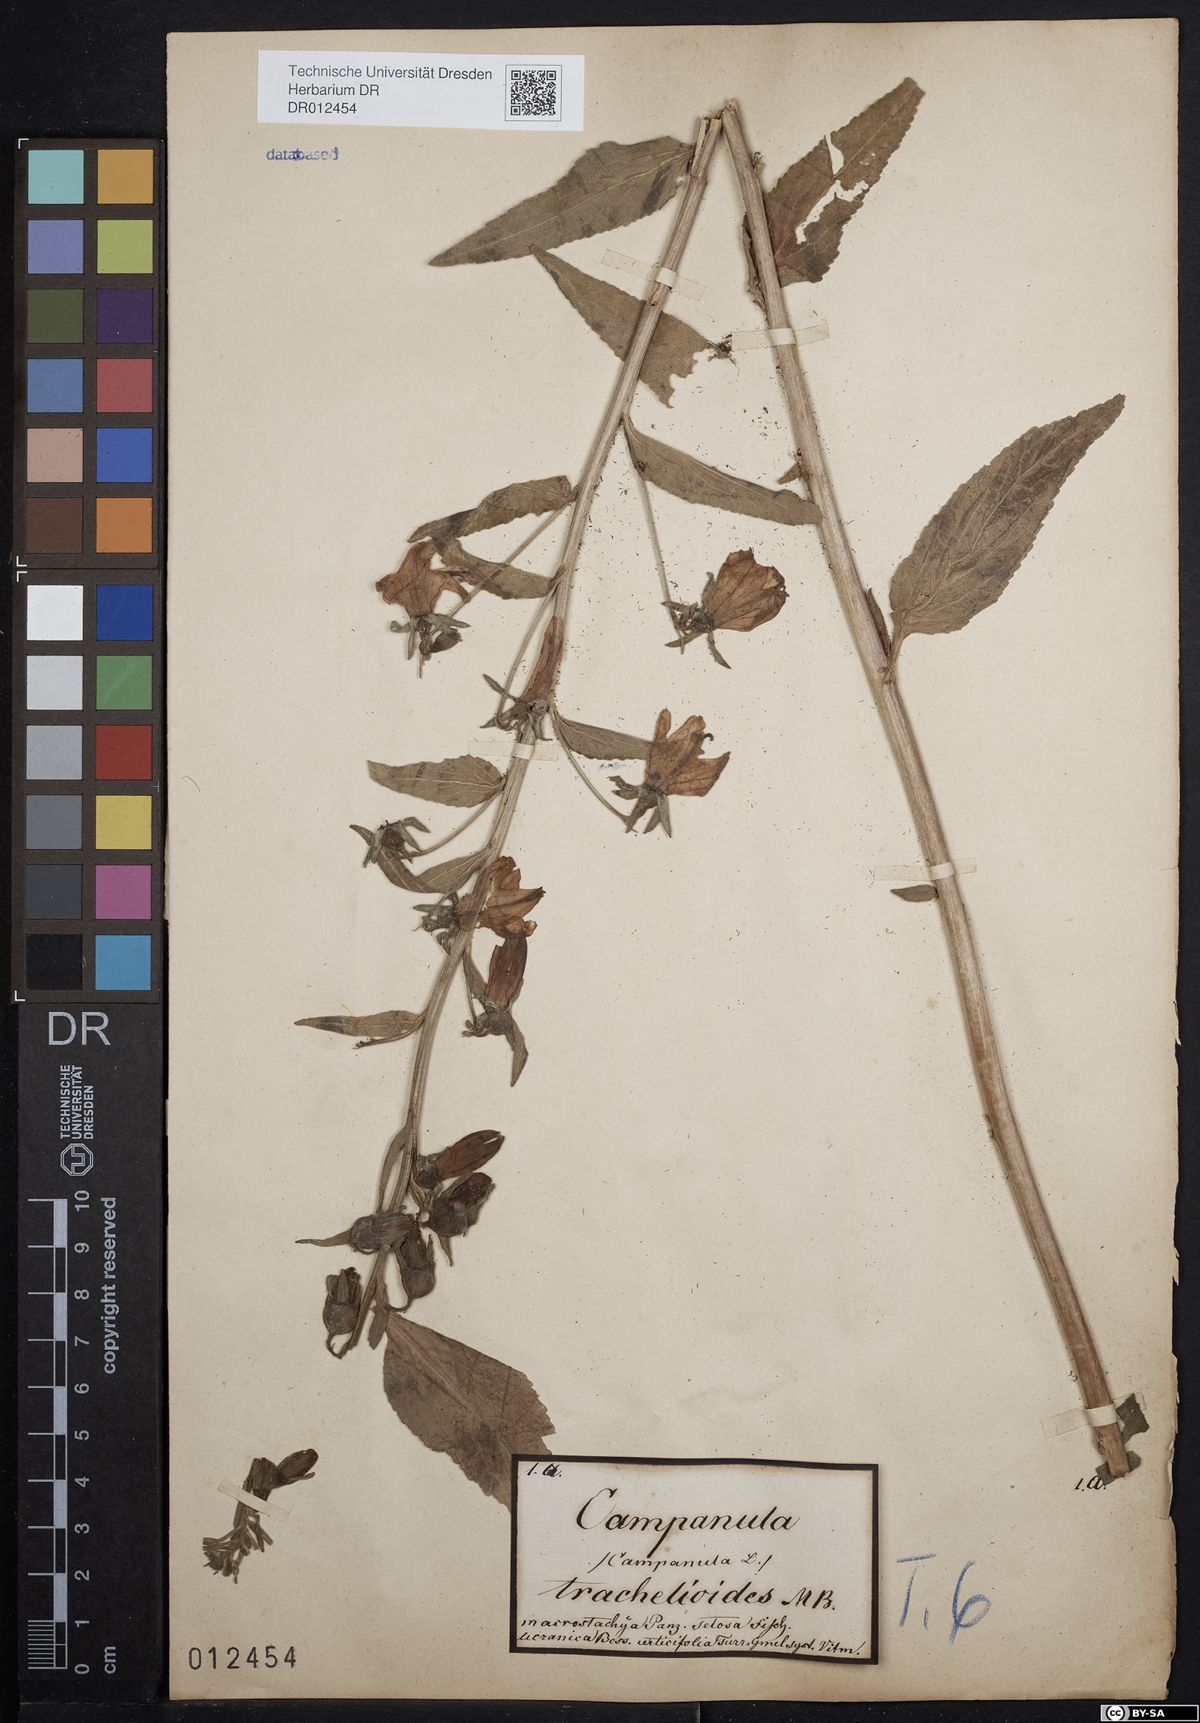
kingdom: Plantae
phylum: Tracheophyta
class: Magnoliopsida
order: Asterales
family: Campanulaceae
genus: Campanula
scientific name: Campanula rapunculoides
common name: Creeping bellflower
